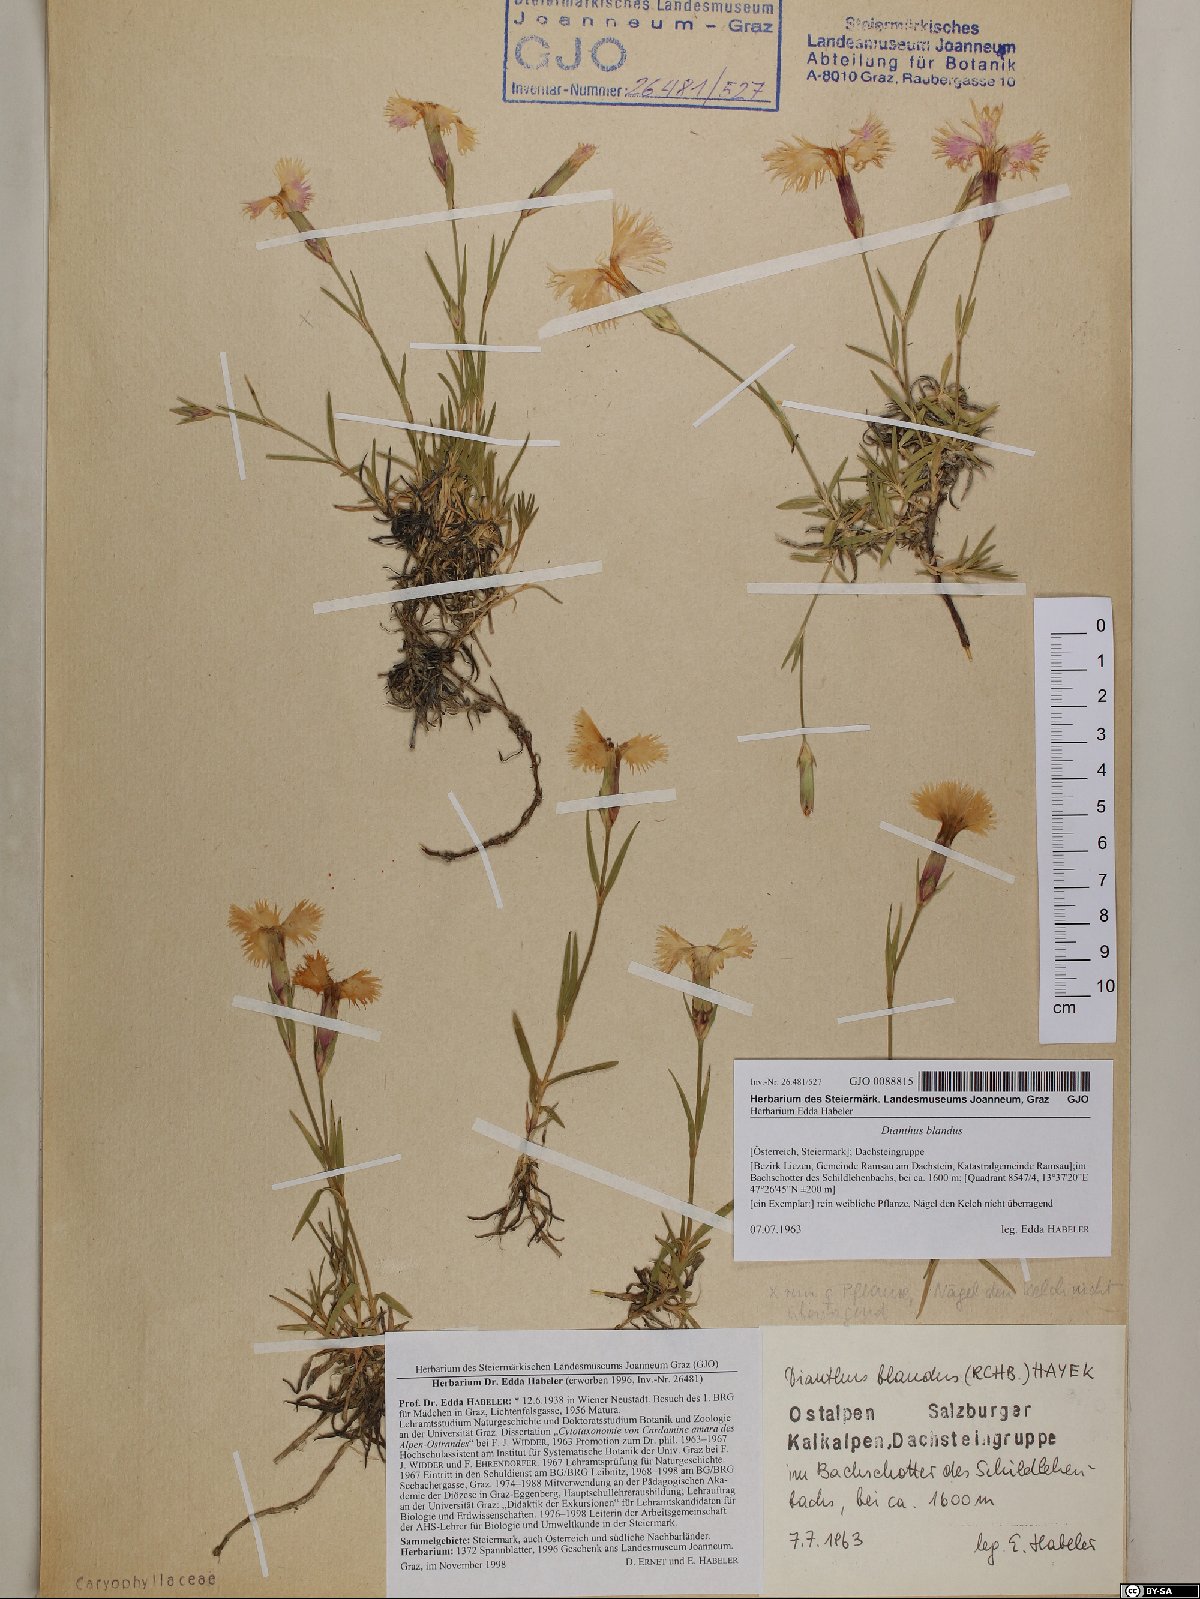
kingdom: Plantae
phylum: Tracheophyta
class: Magnoliopsida
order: Caryophyllales
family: Caryophyllaceae
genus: Dianthus
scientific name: Dianthus plumarius
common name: Pink
